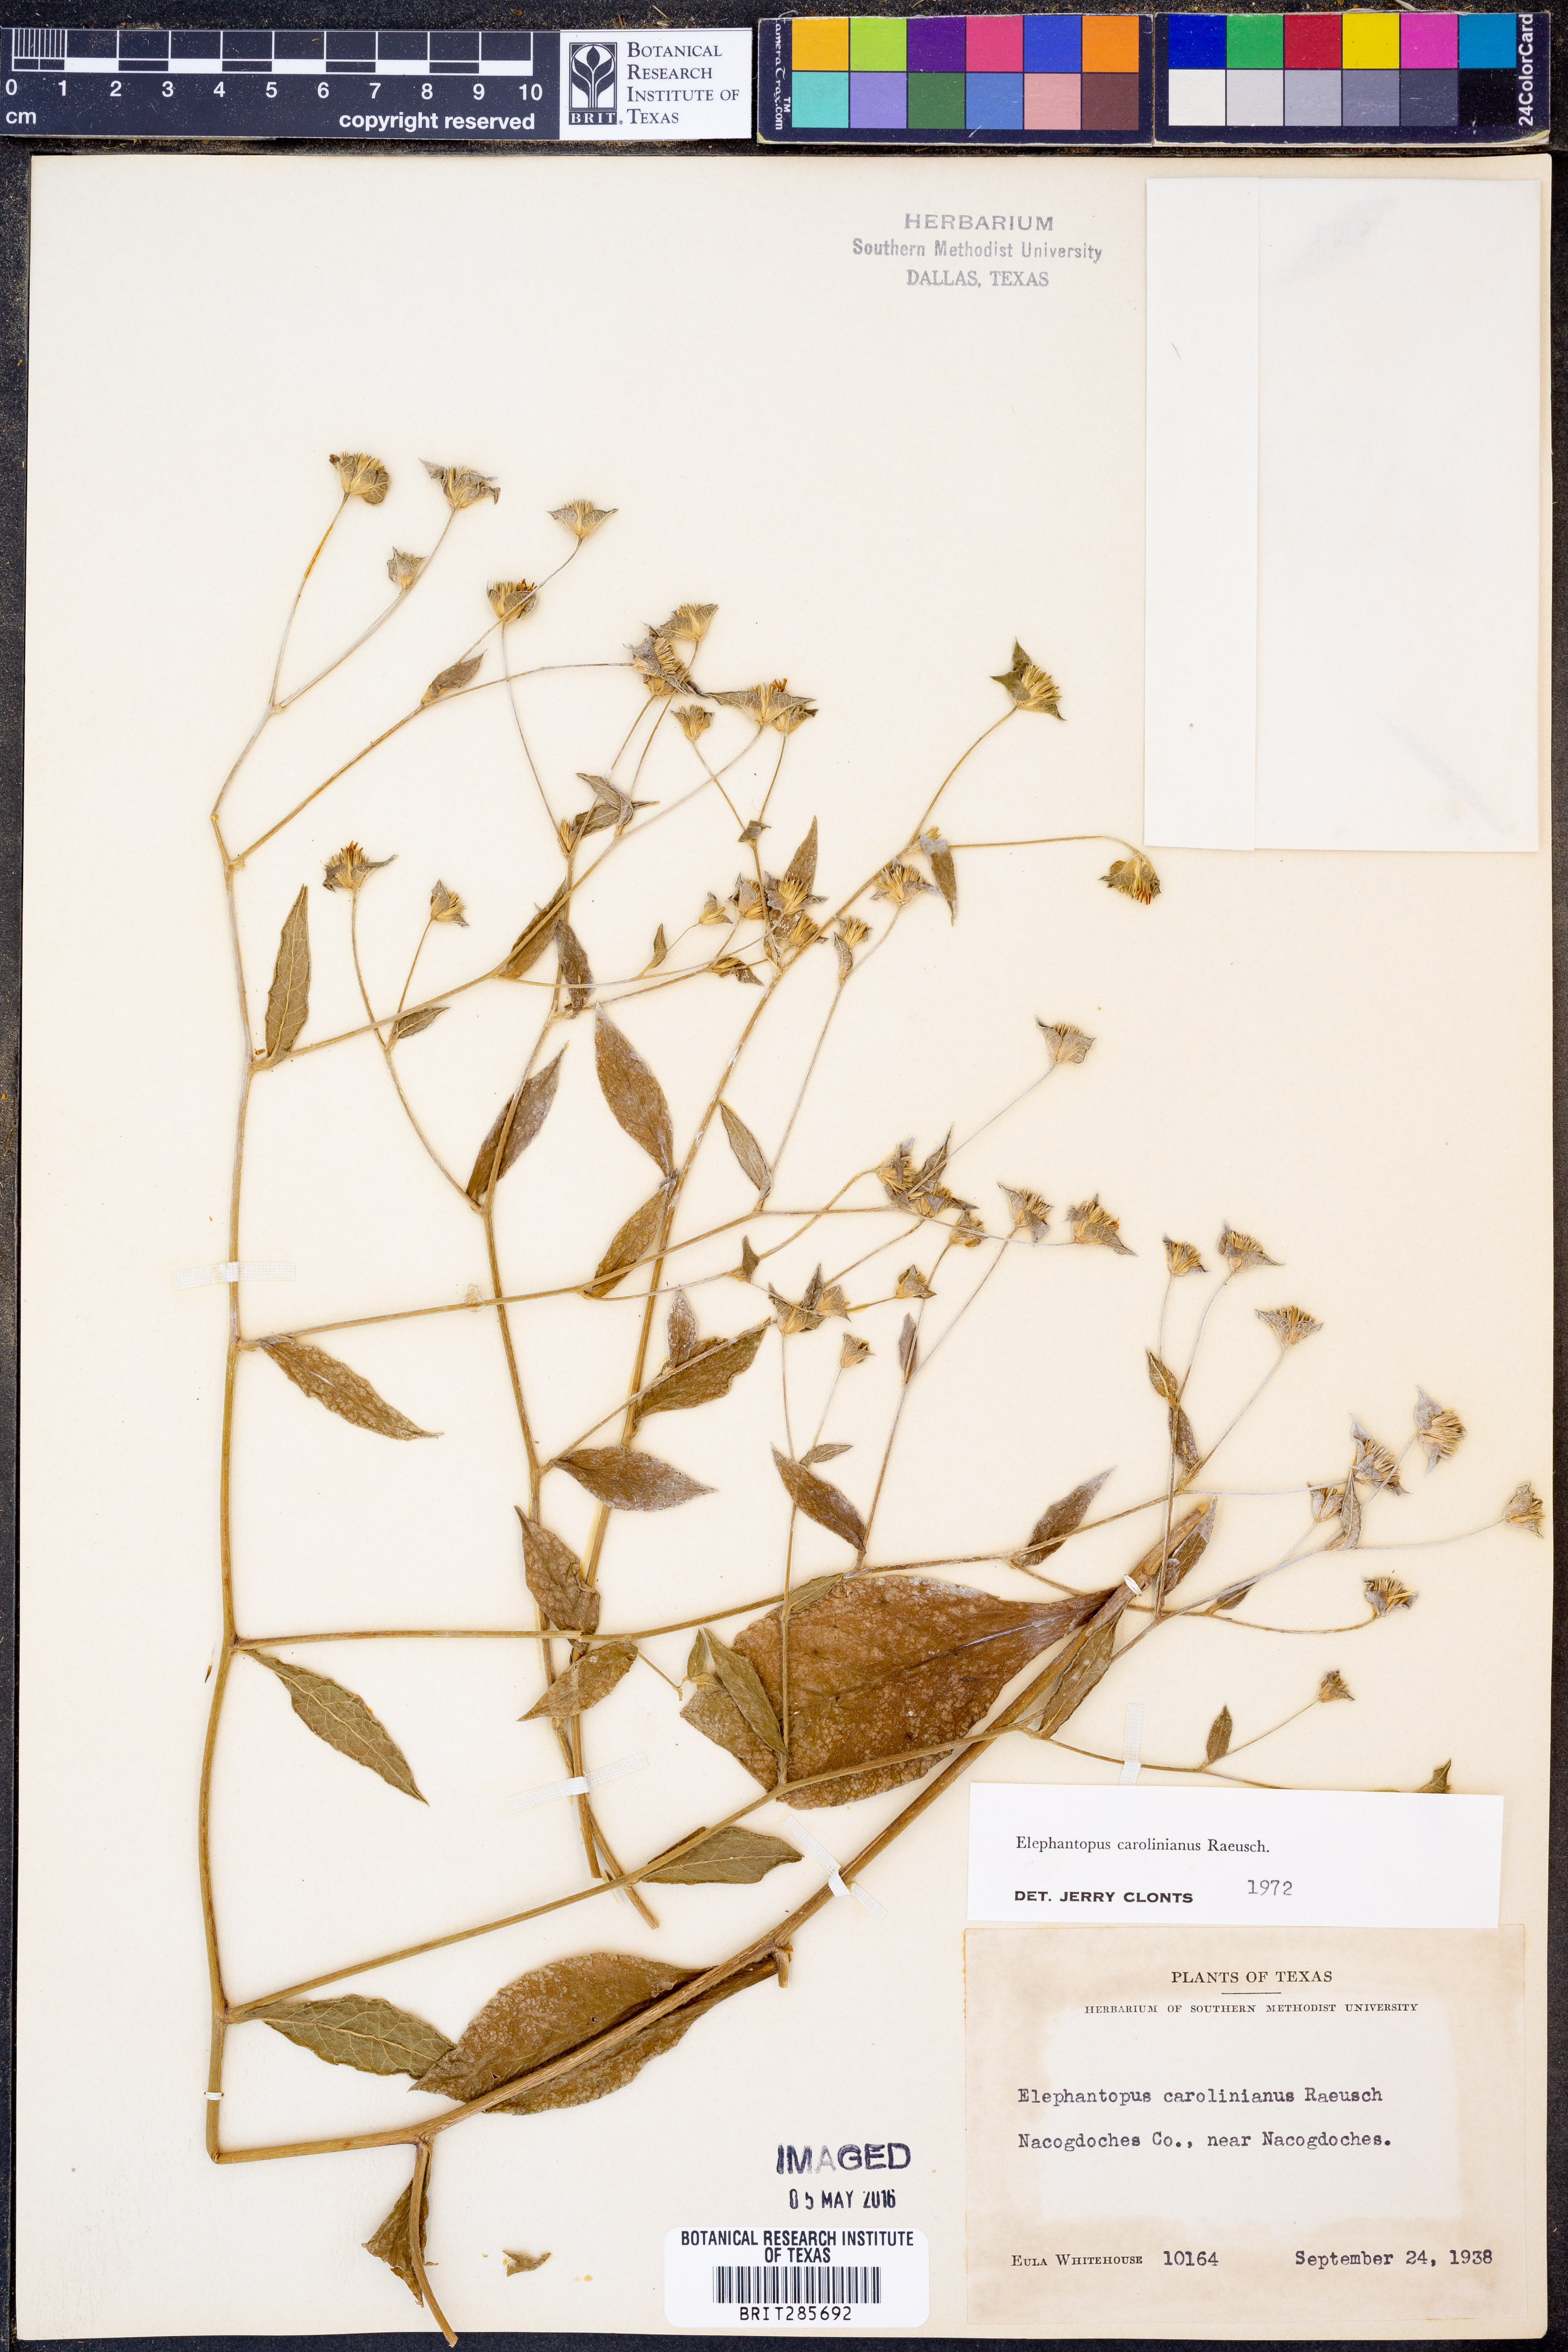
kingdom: Plantae
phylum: Tracheophyta
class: Magnoliopsida
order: Asterales
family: Asteraceae
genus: Elephantopus
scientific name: Elephantopus carolinianus
